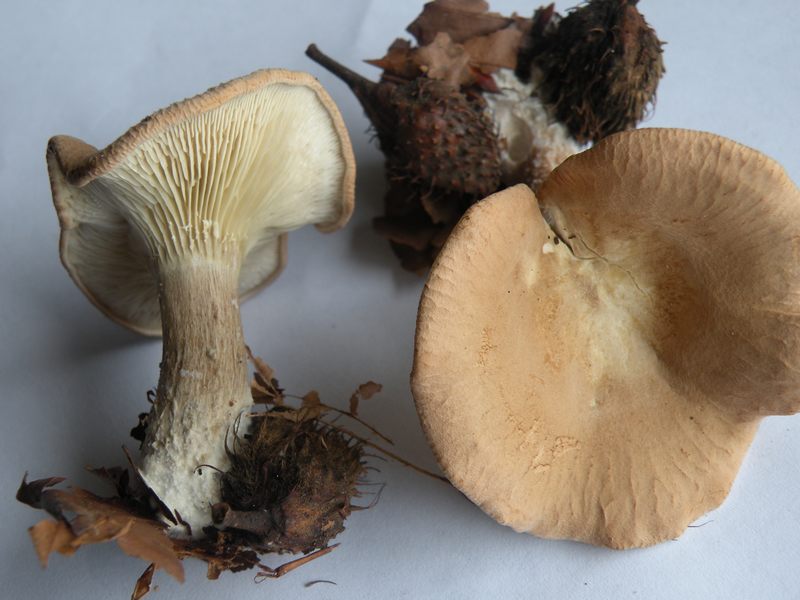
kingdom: Fungi
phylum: Basidiomycota
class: Agaricomycetes
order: Agaricales
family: Tricholomataceae
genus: Infundibulicybe
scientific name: Infundibulicybe alkaliviolascens
